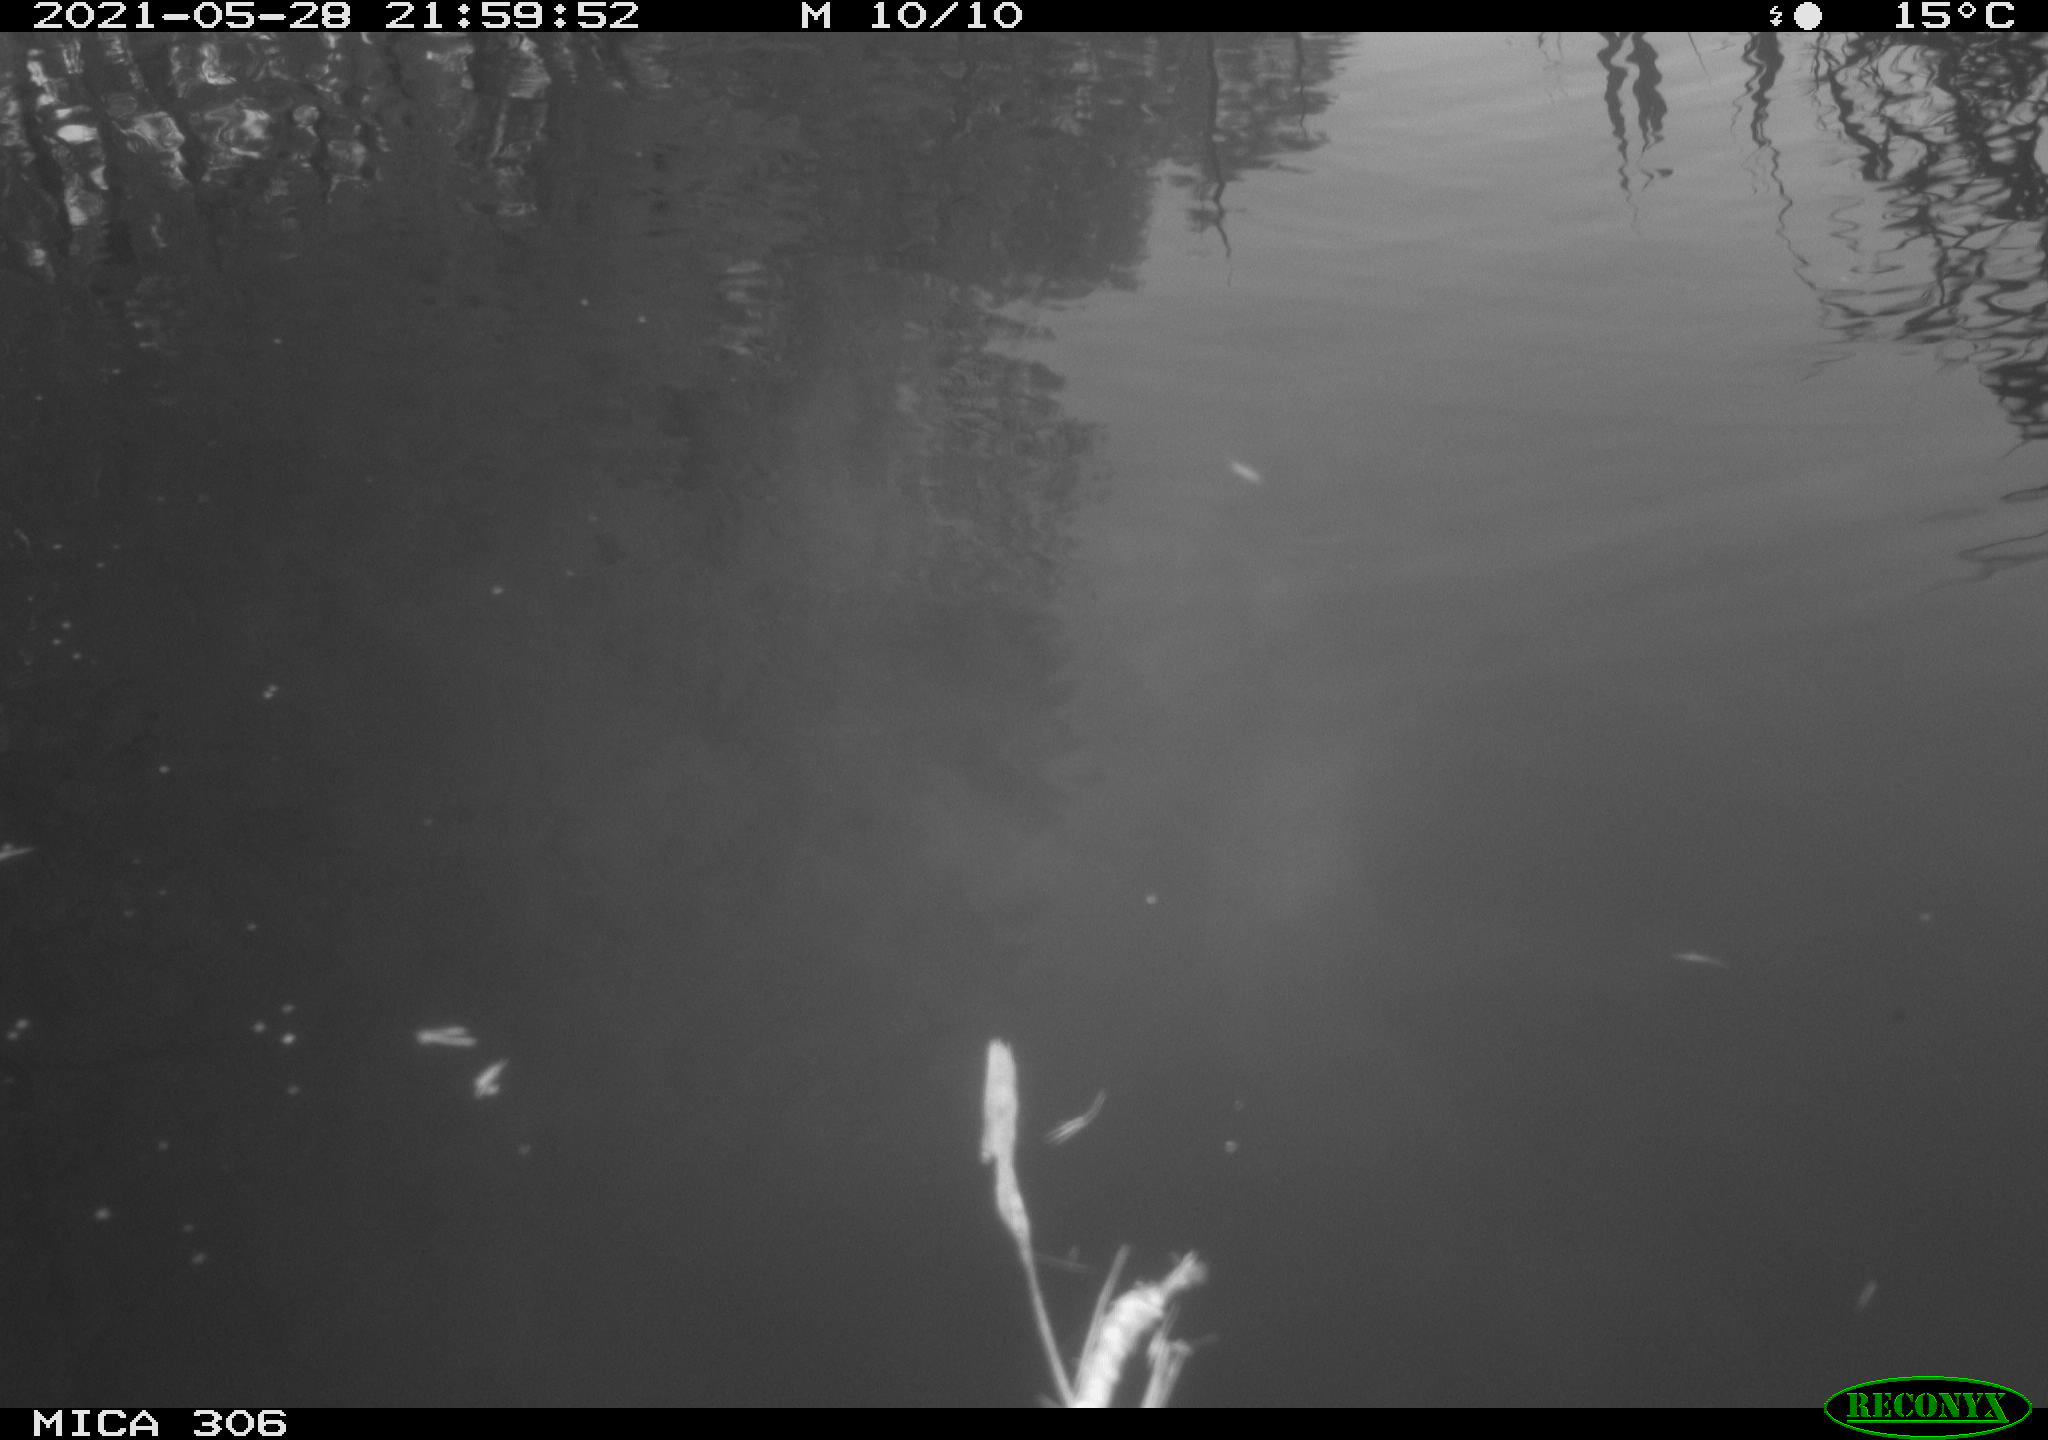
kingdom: Animalia
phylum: Chordata
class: Aves
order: Anseriformes
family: Anatidae
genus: Anas
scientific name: Anas platyrhynchos
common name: Mallard
